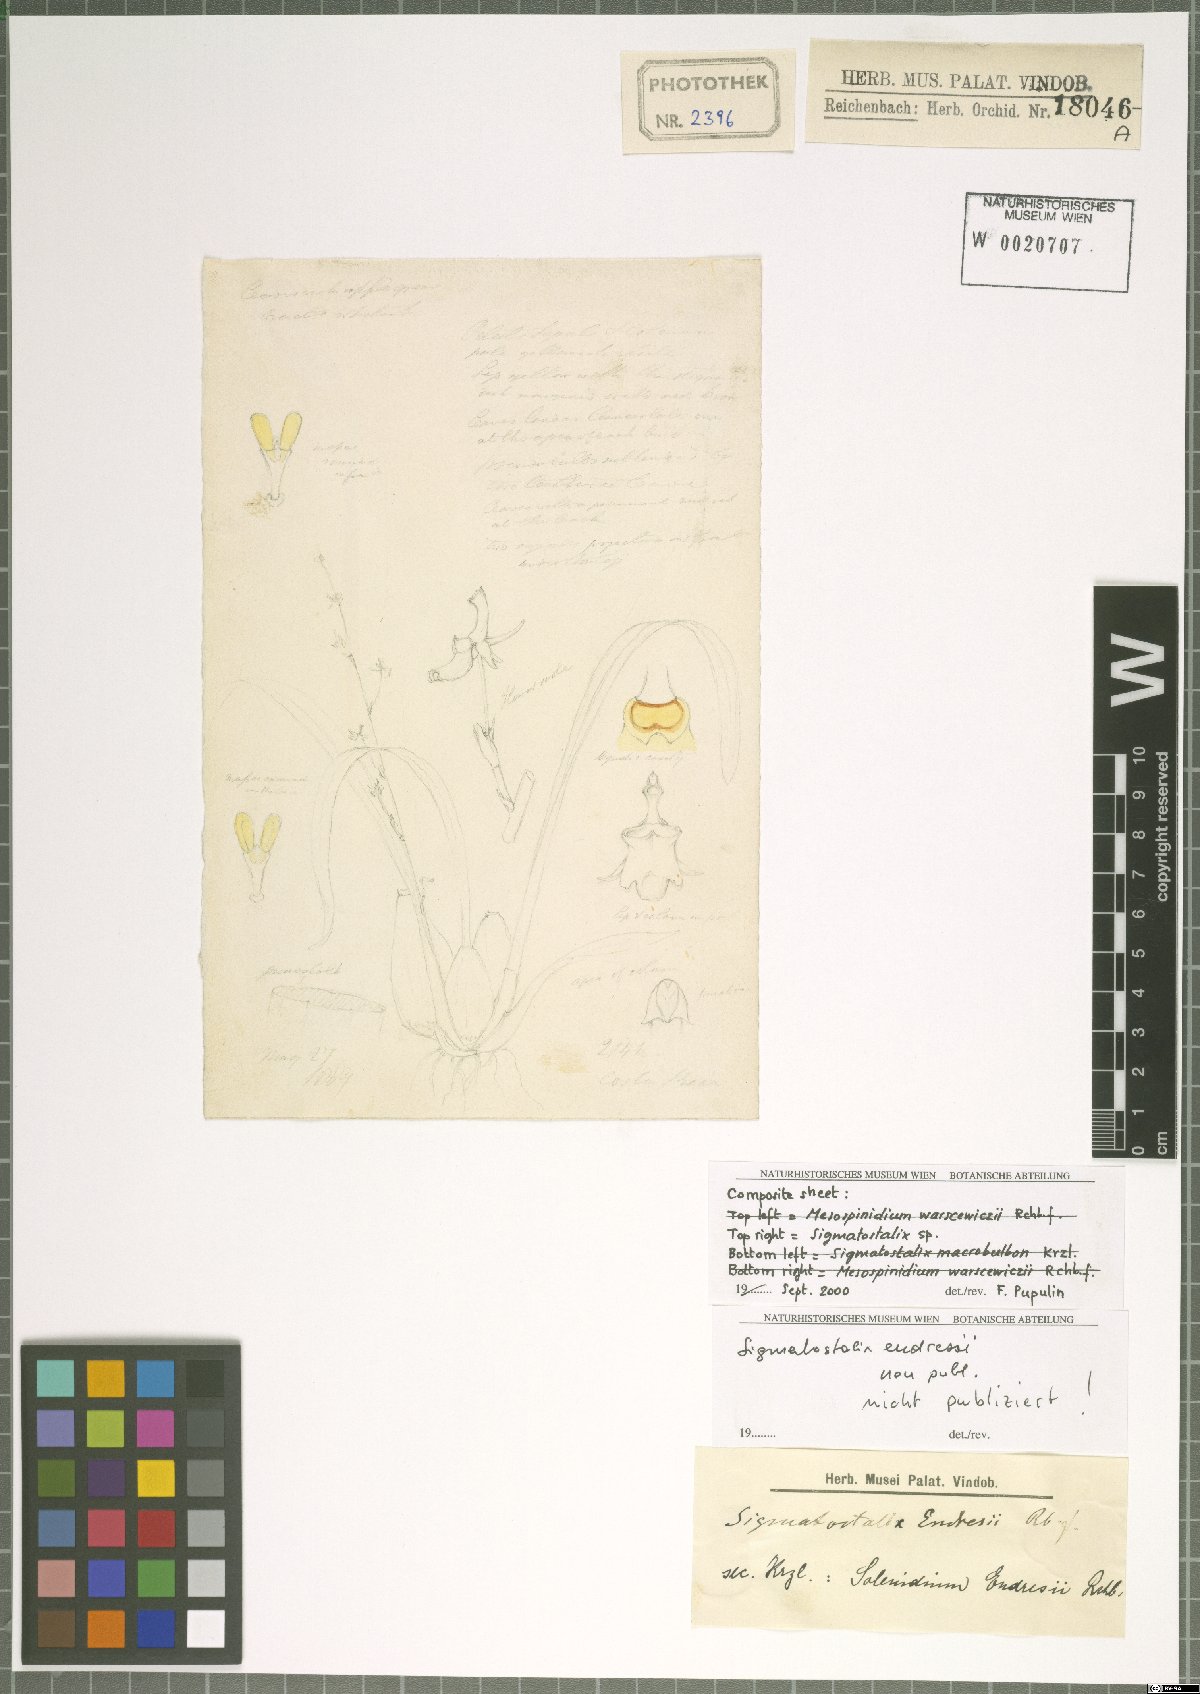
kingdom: Plantae
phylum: Tracheophyta
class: Liliopsida
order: Asparagales
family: Orchidaceae
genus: Oncidium
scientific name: Oncidium
